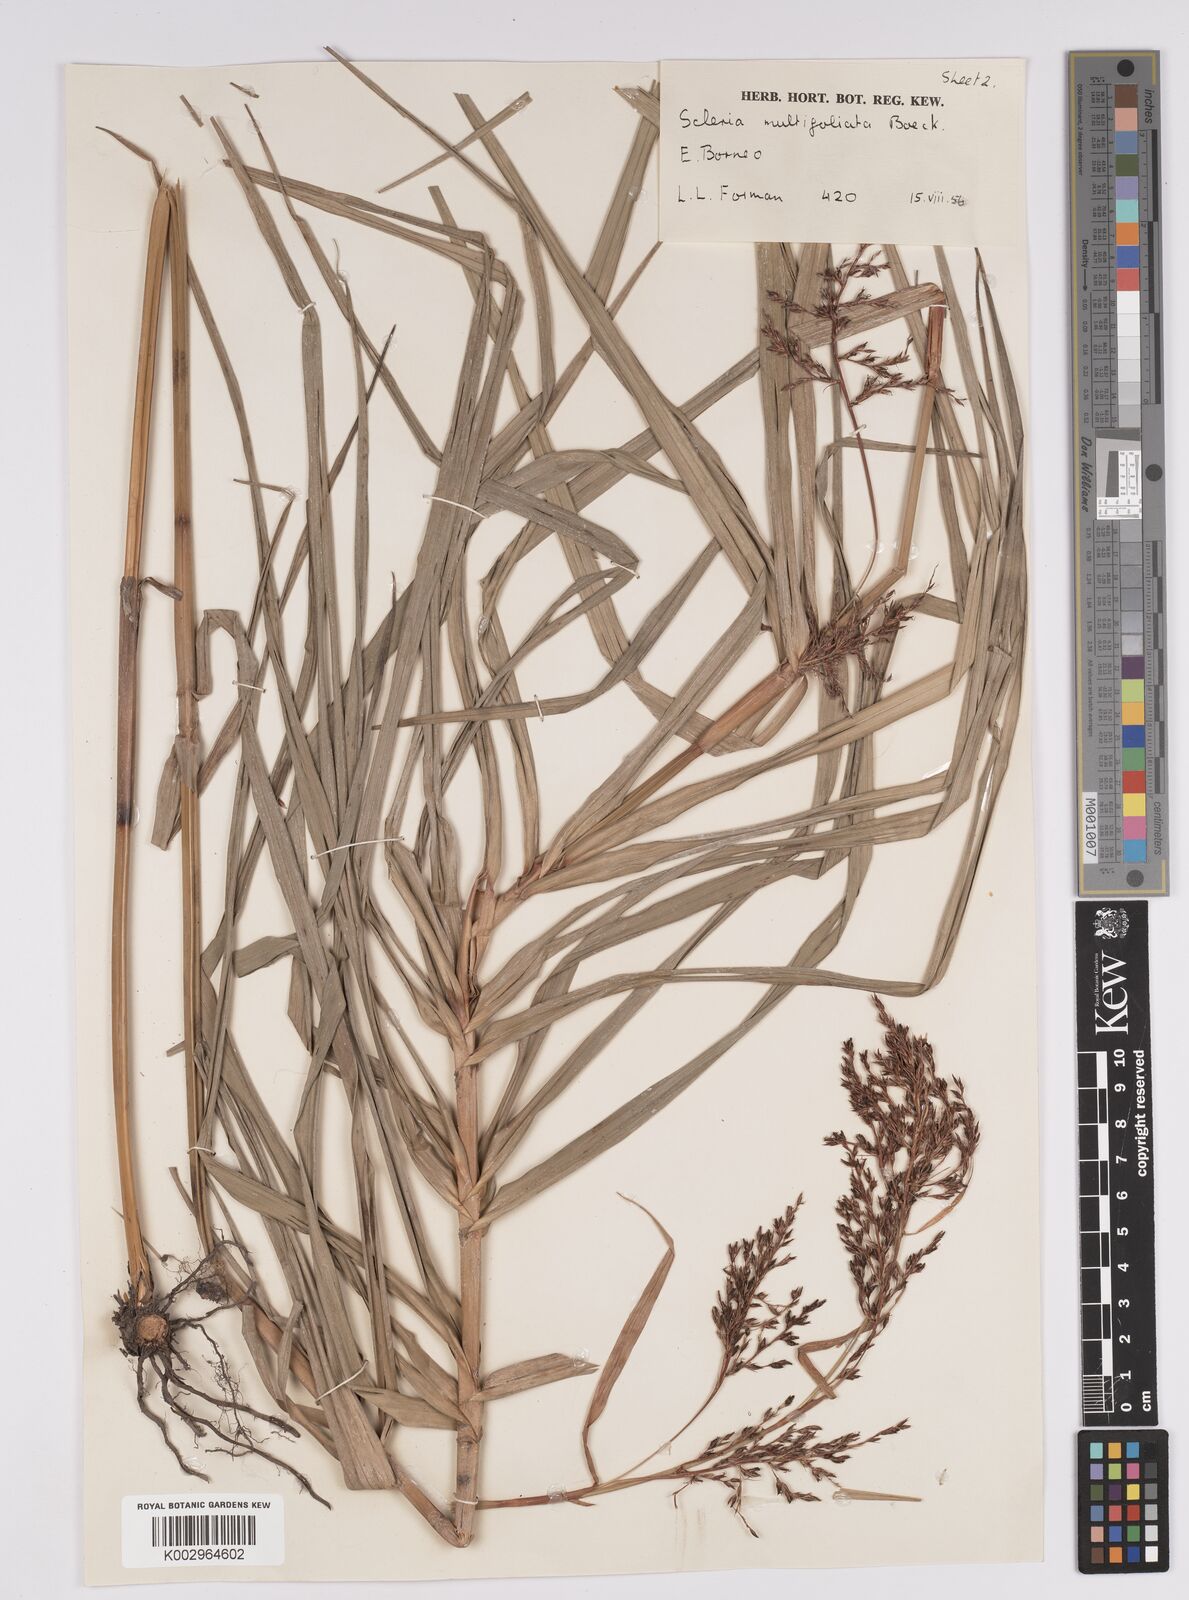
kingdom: Plantae
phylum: Tracheophyta
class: Liliopsida
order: Poales
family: Cyperaceae
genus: Scleria
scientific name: Scleria purpurascens
